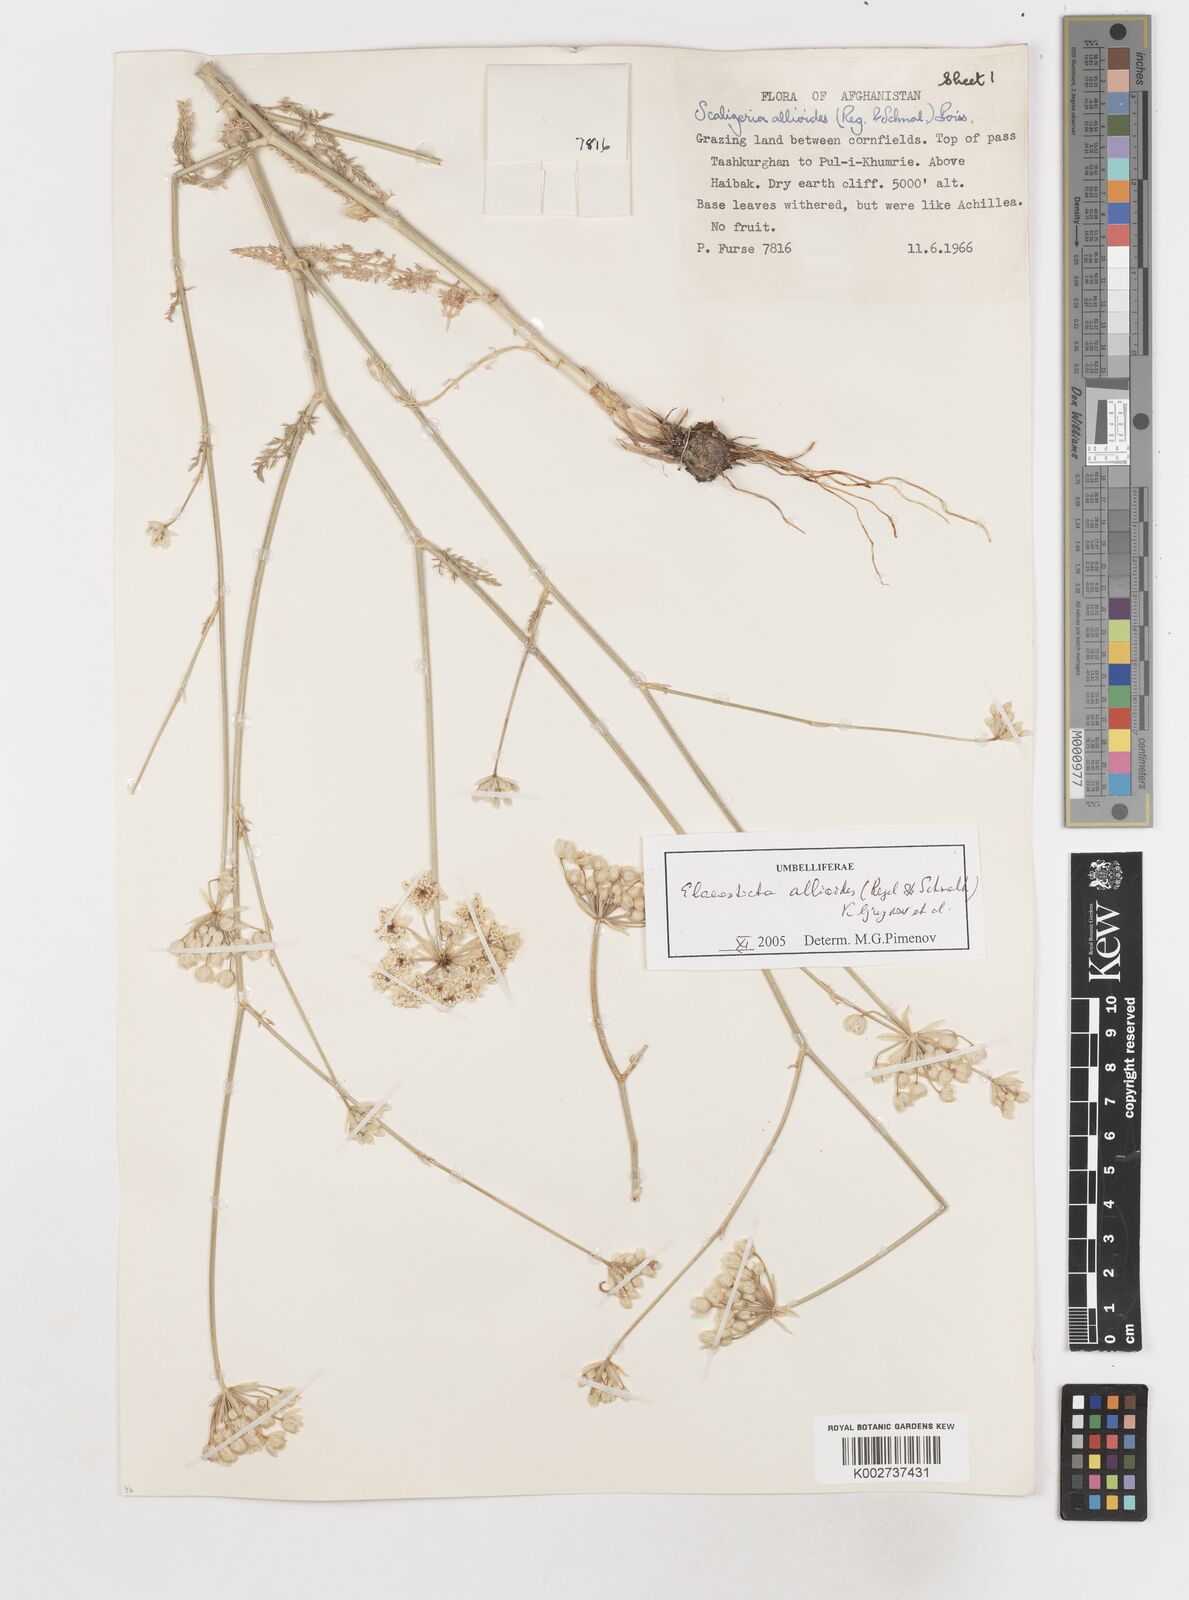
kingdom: Plantae
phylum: Tracheophyta
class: Magnoliopsida
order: Apiales
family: Apiaceae
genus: Scaligeria
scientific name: Scaligeria allioides
